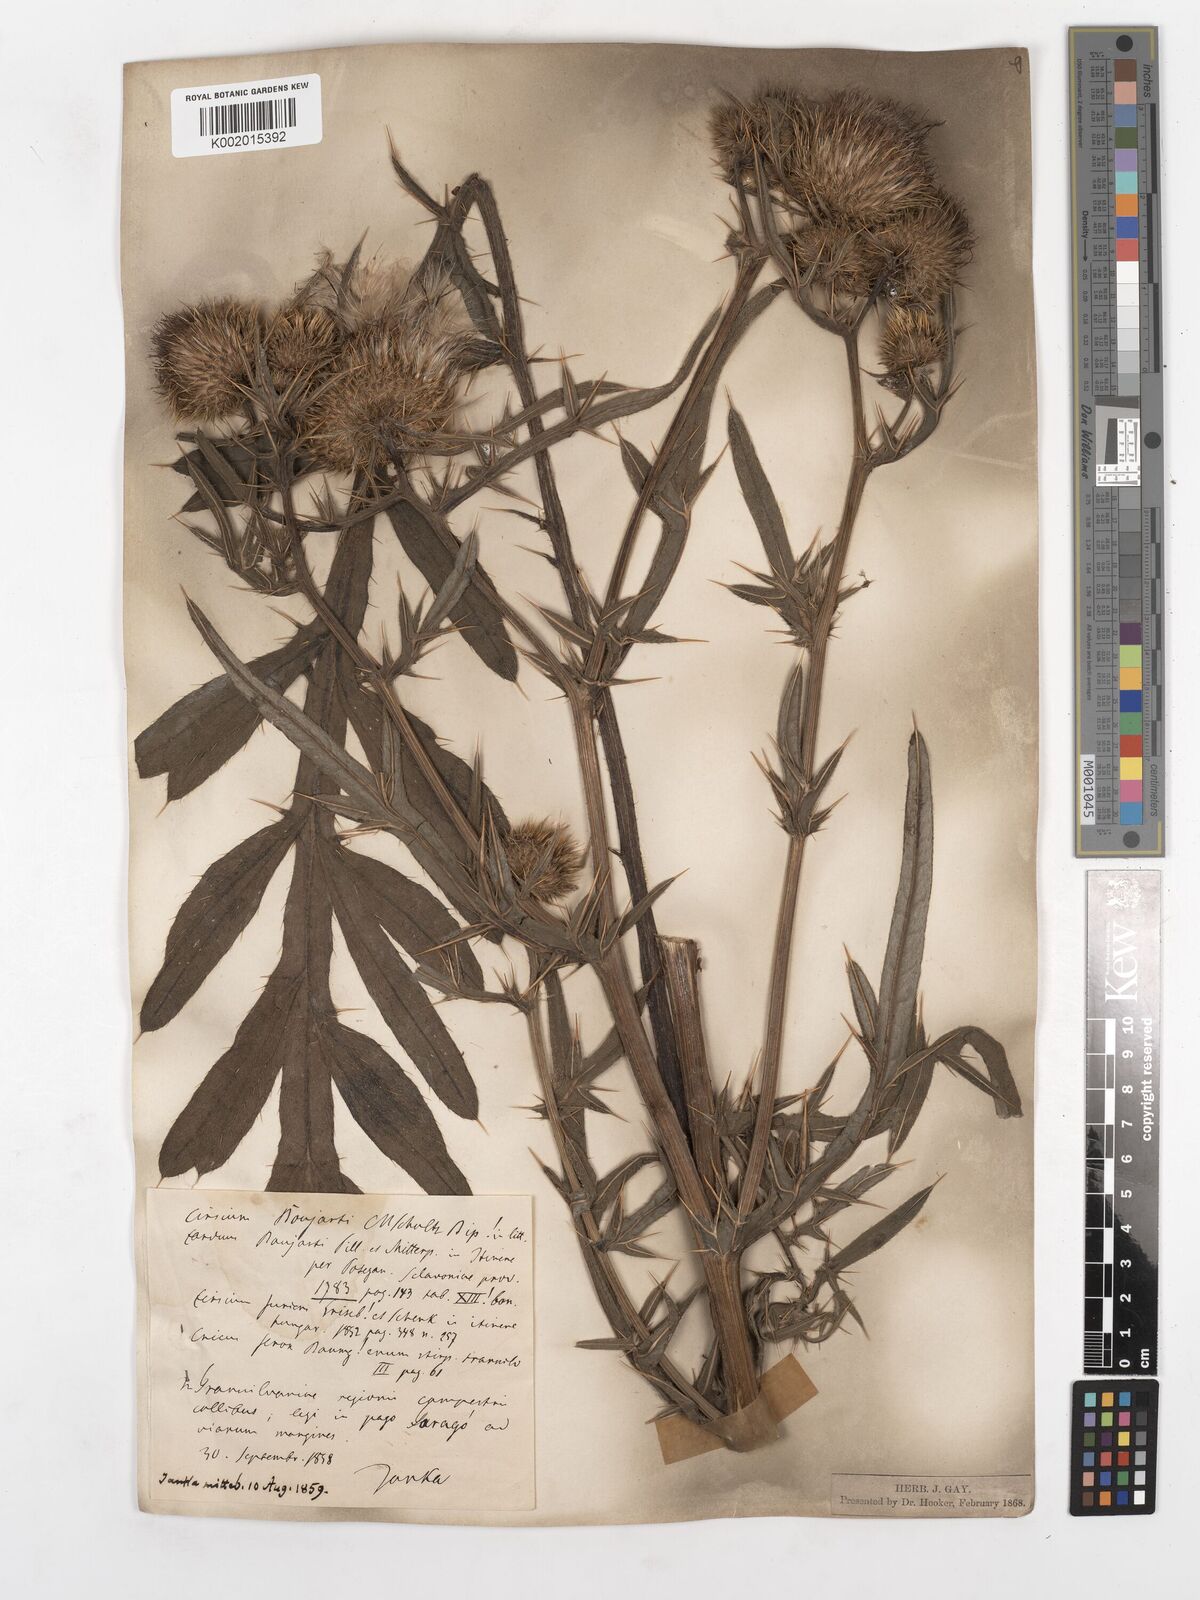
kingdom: Plantae
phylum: Tracheophyta
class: Magnoliopsida
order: Asterales
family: Asteraceae
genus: Lophiolepis
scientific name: Lophiolepis furiens
